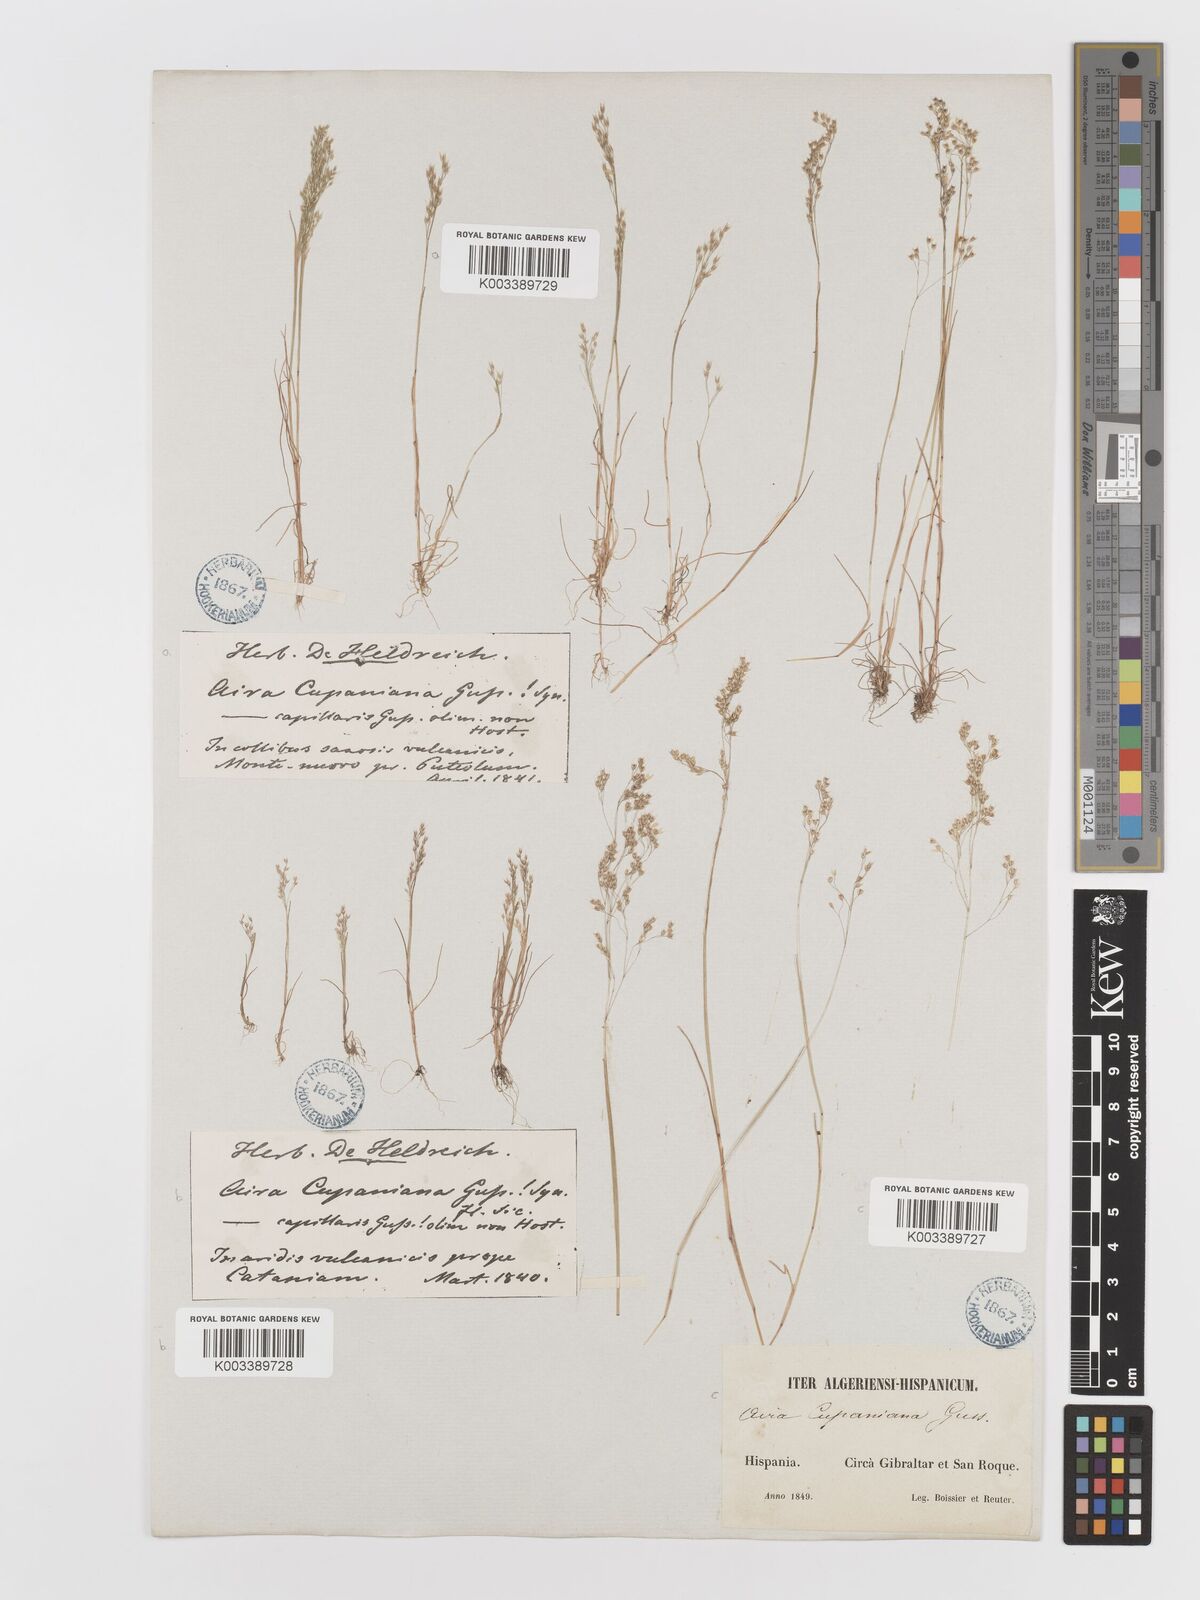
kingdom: Plantae
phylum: Tracheophyta
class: Liliopsida
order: Poales
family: Poaceae
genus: Aira
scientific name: Aira caryophyllea
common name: Silver hairgrass
